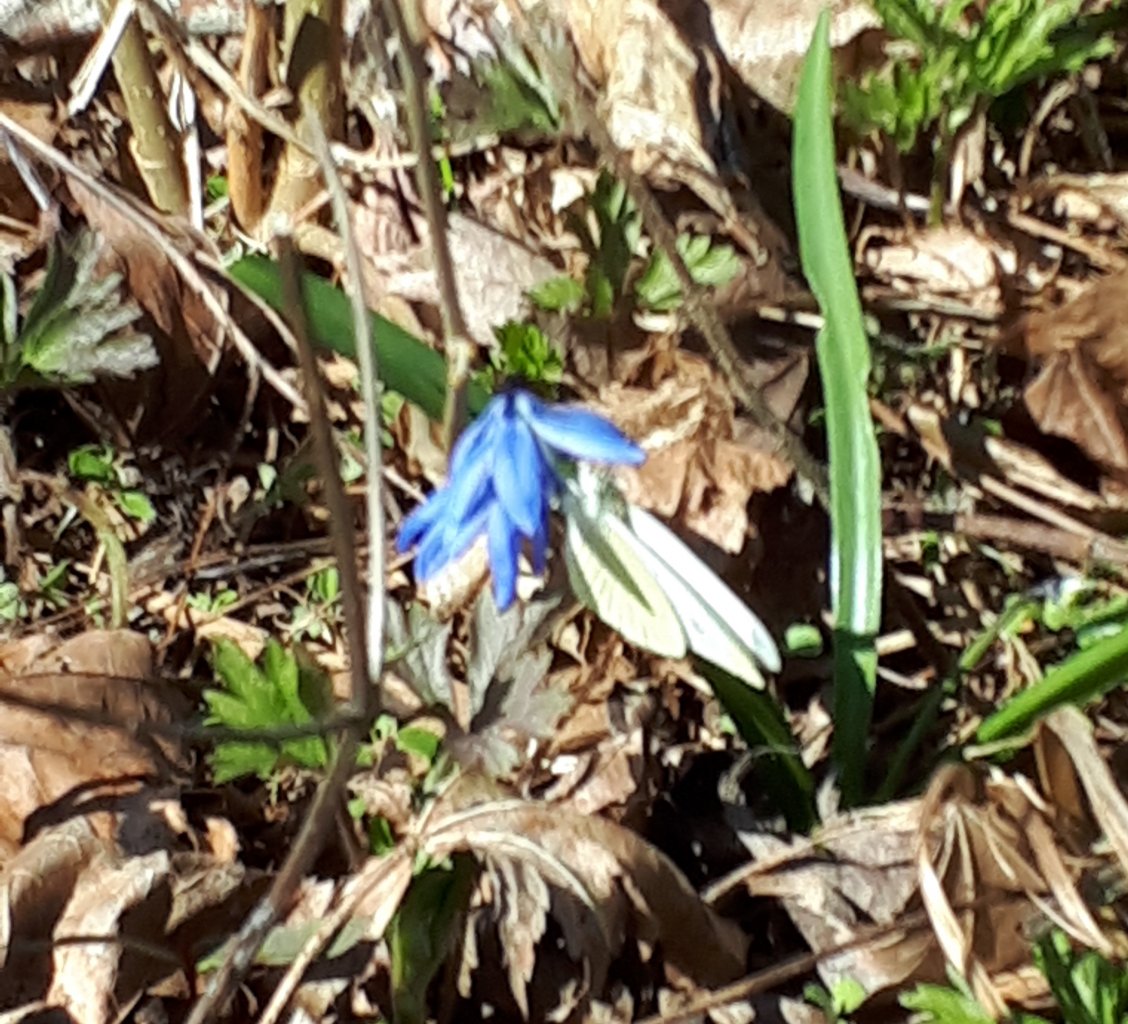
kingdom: Animalia
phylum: Arthropoda
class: Insecta
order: Lepidoptera
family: Pieridae
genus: Pieris
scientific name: Pieris rapae
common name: Cabbage White
